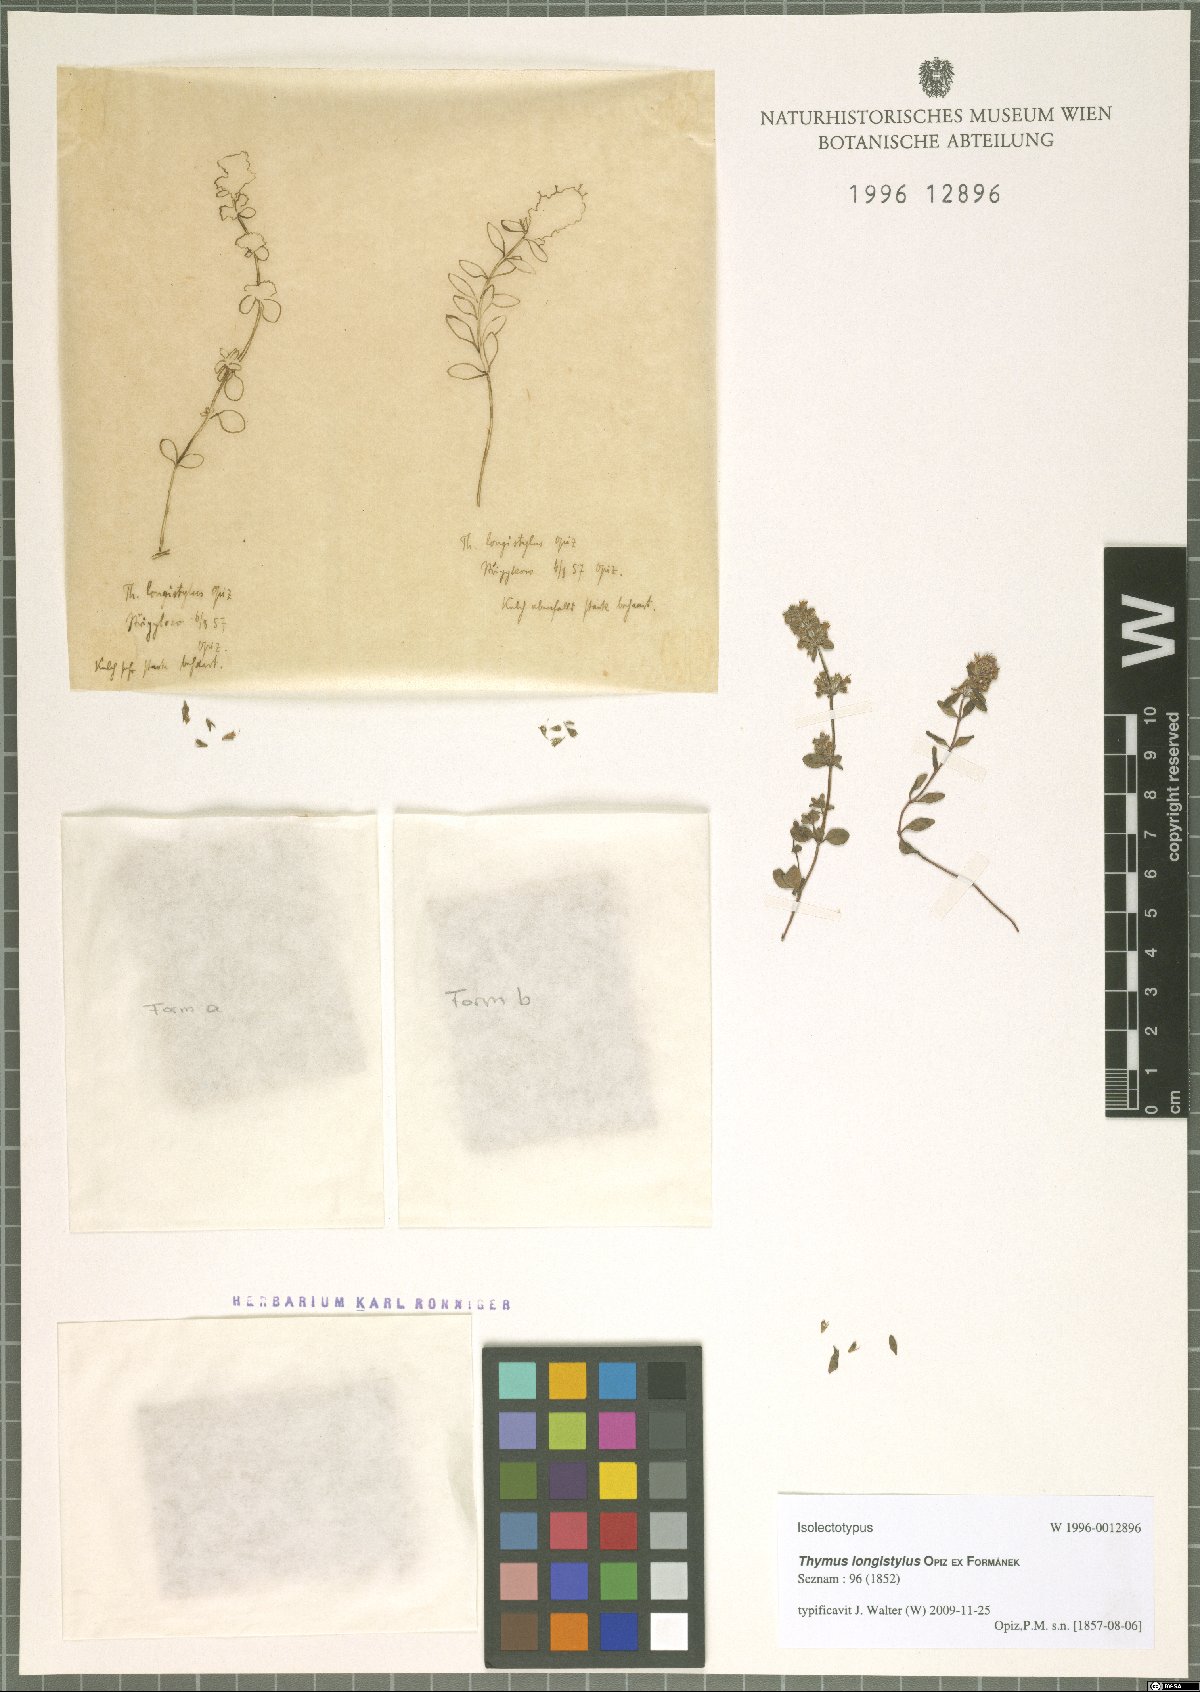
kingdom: Plantae
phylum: Tracheophyta
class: Magnoliopsida
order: Lamiales
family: Lamiaceae
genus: Thymus
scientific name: Thymus serpyllum
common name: Breckland thyme
